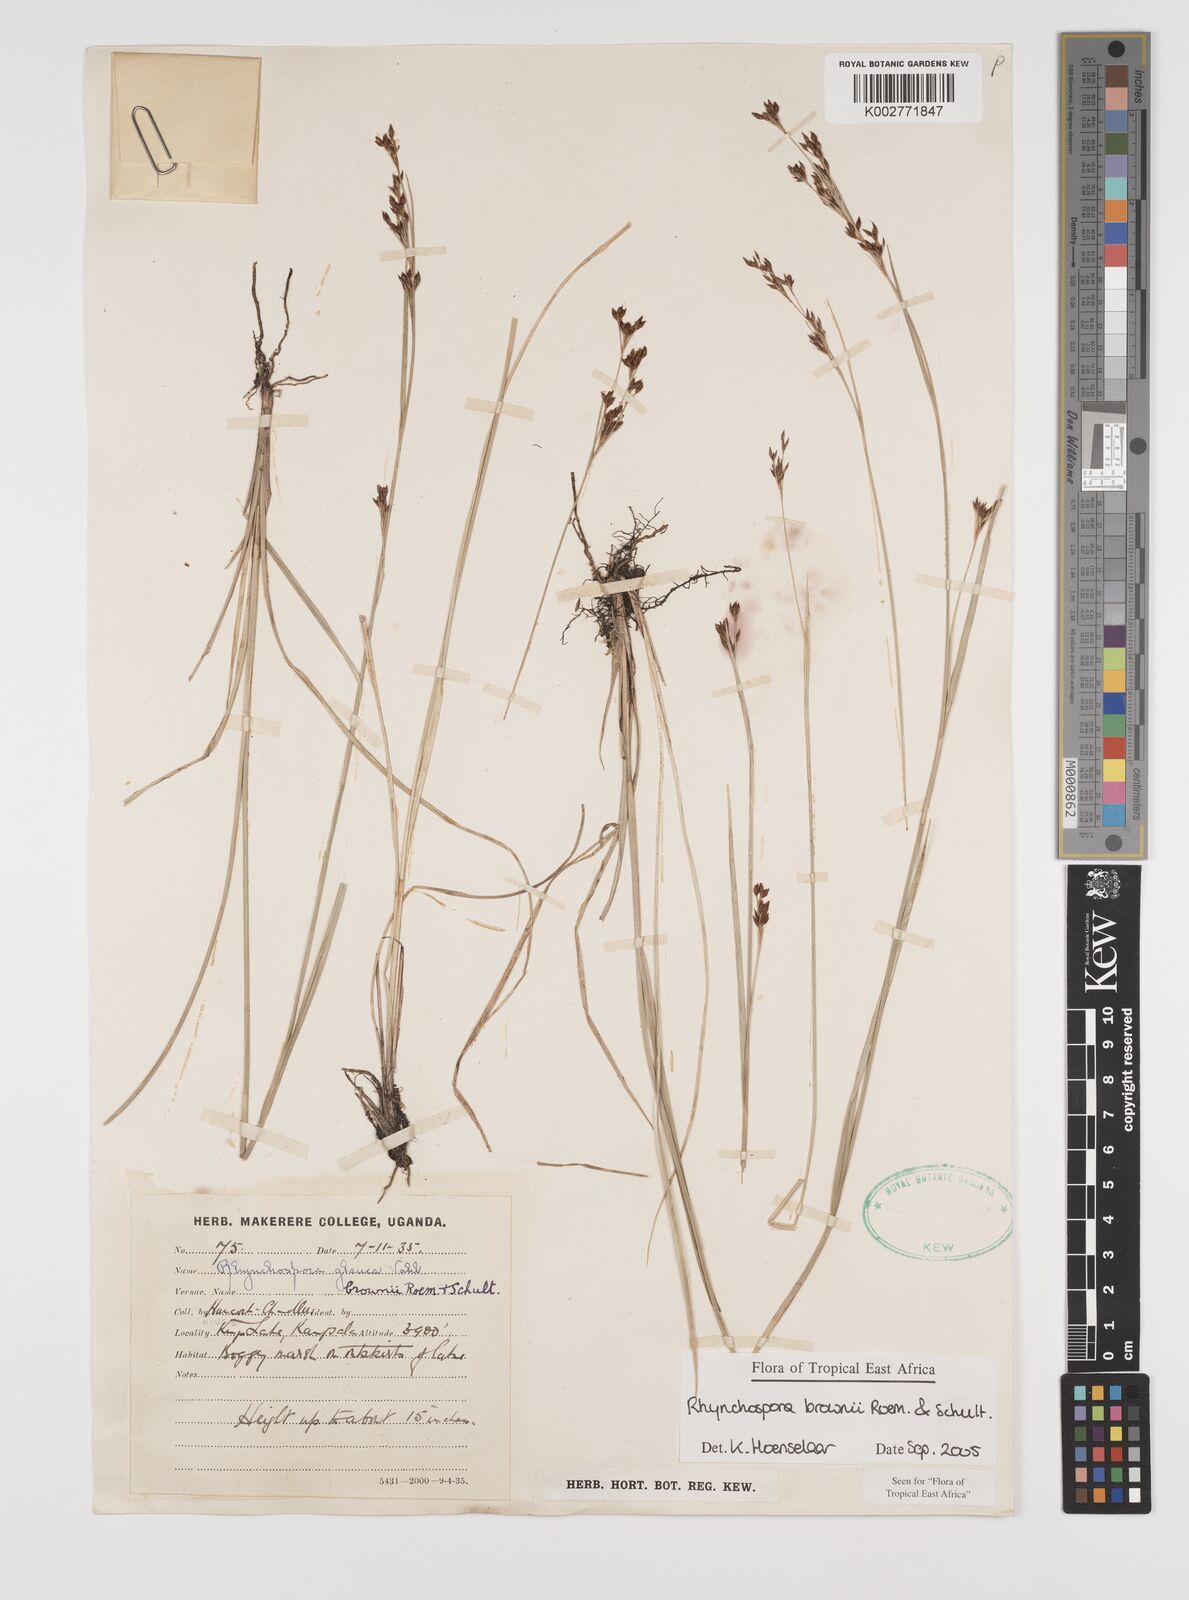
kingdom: Plantae
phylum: Tracheophyta
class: Liliopsida
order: Poales
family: Cyperaceae
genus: Rhynchospora
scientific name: Rhynchospora brownii
